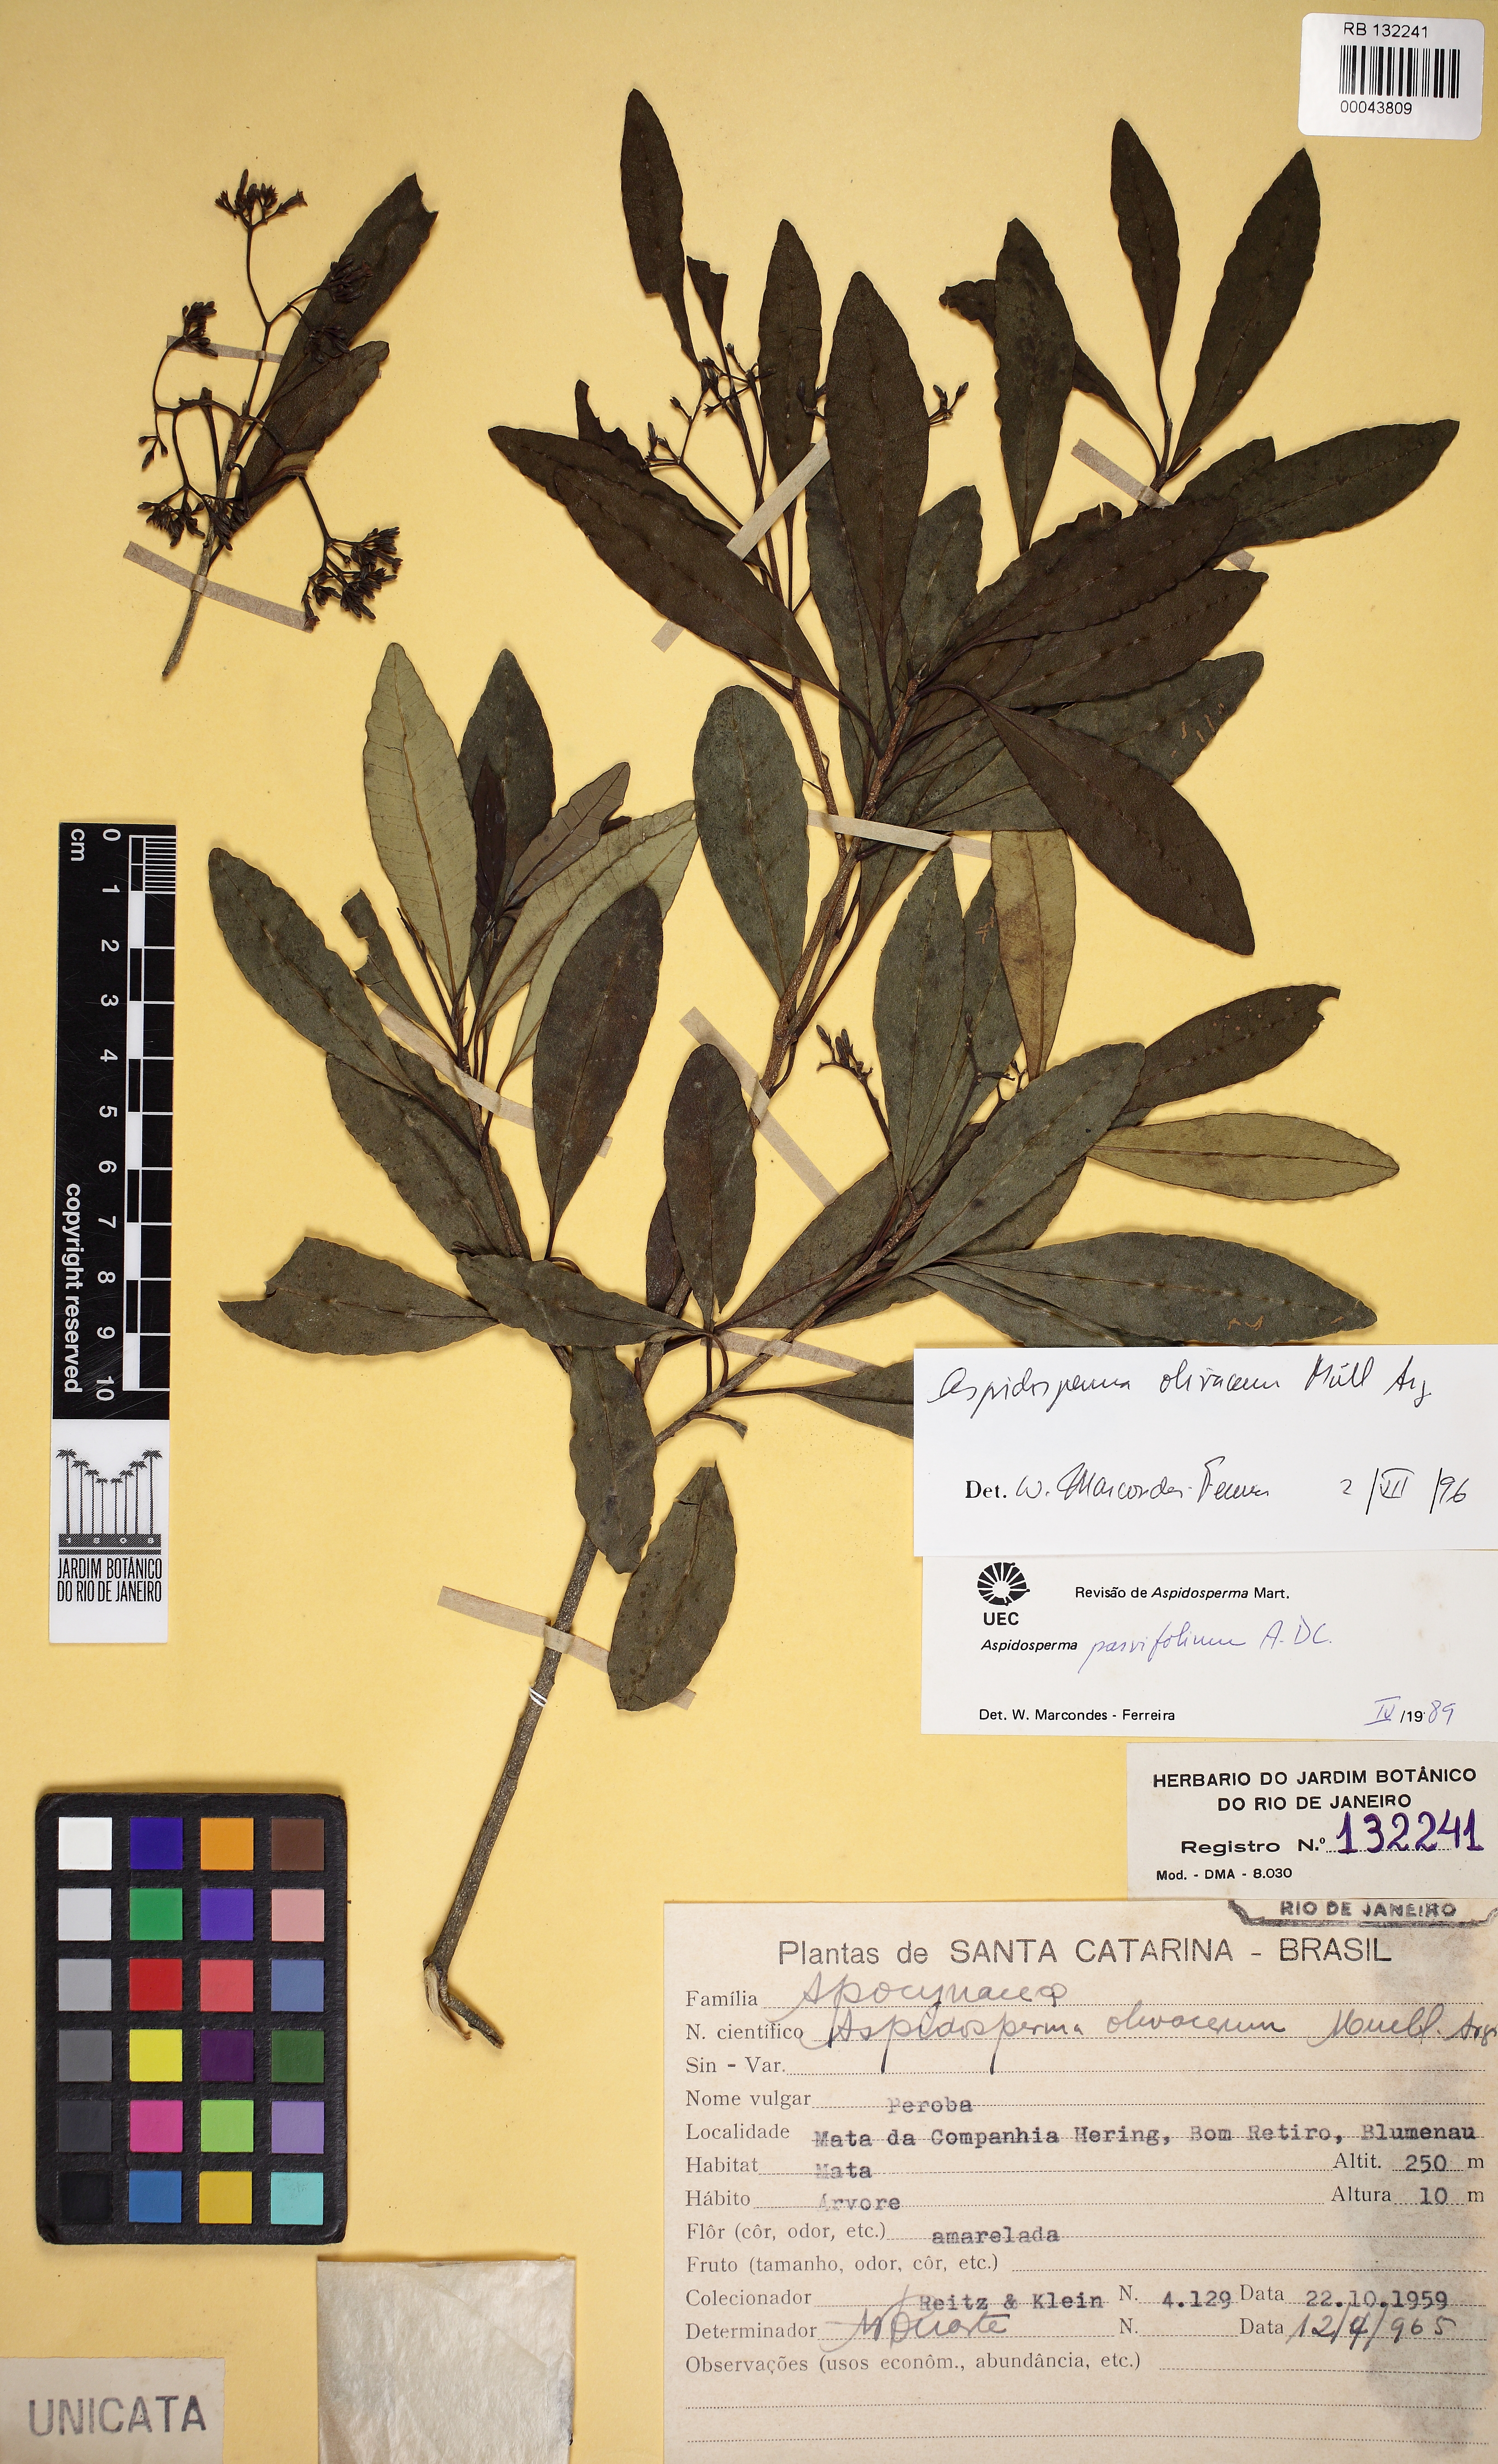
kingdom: Plantae
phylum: Tracheophyta
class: Magnoliopsida
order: Gentianales
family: Apocynaceae
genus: Aspidosperma
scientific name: Aspidosperma olivaceum
